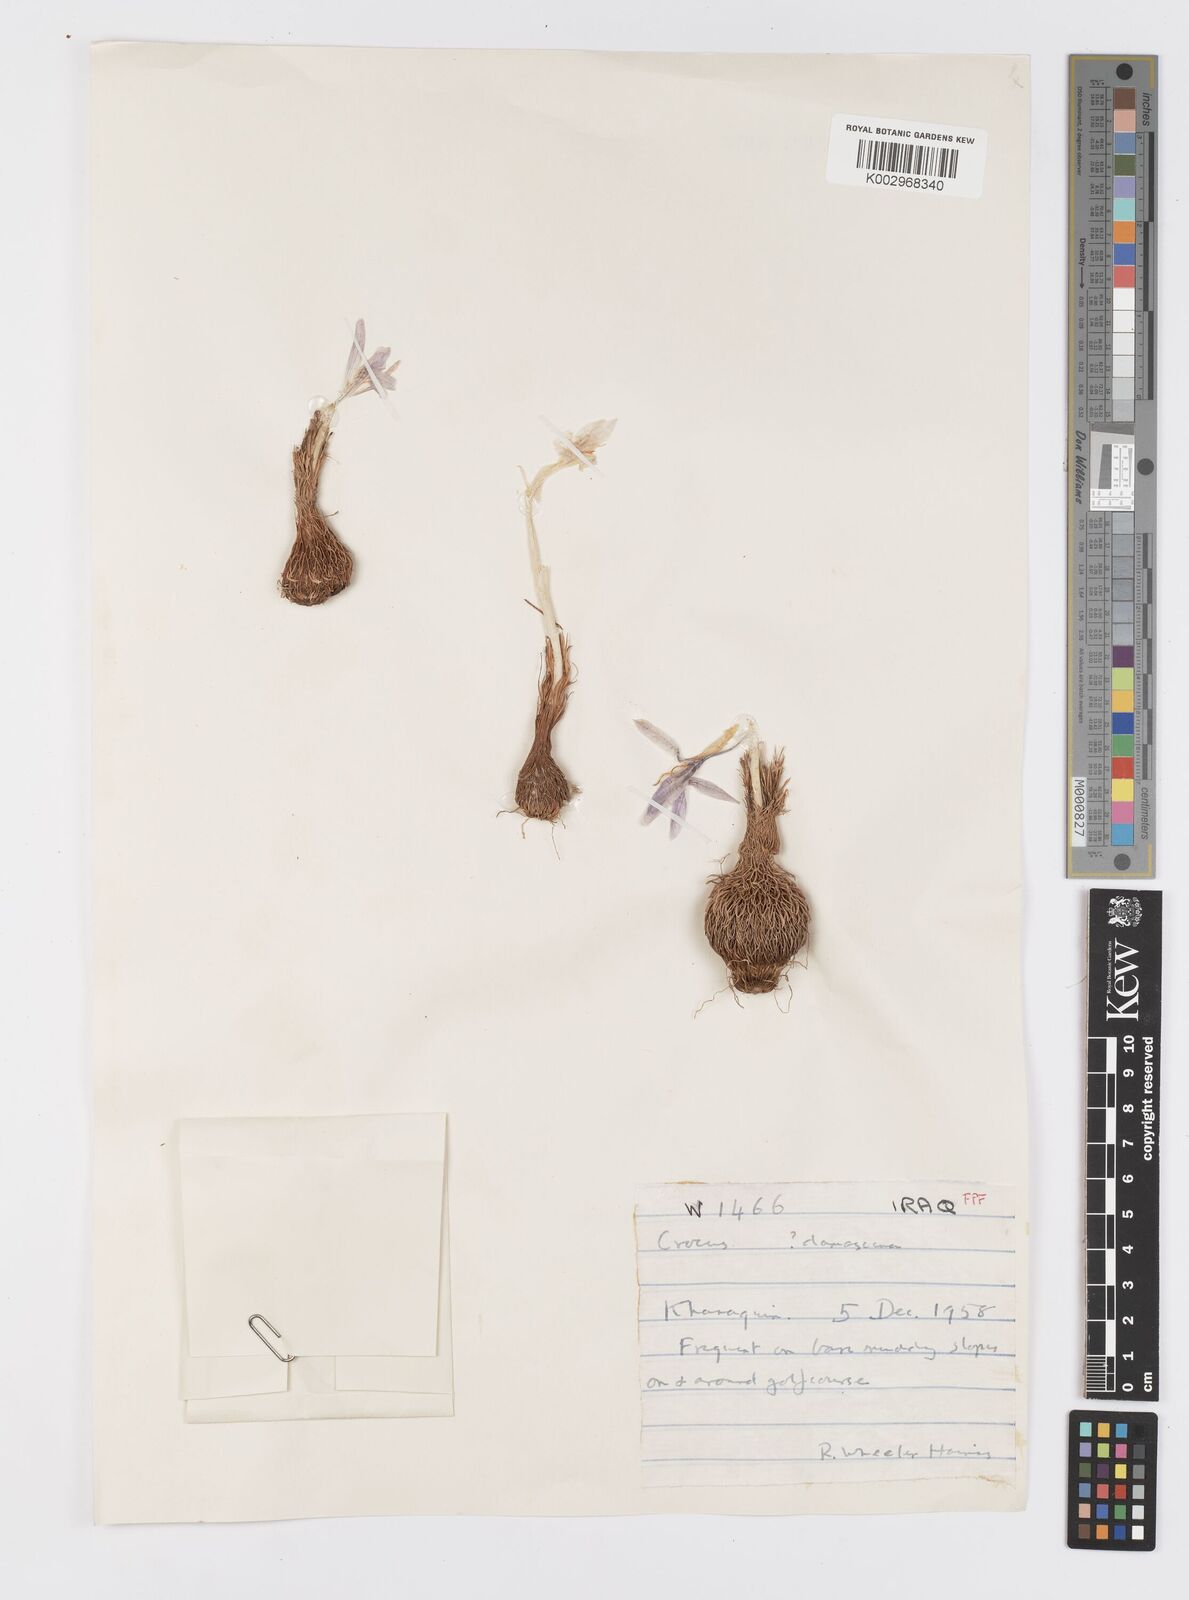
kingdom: Plantae
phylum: Tracheophyta
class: Liliopsida
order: Asparagales
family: Iridaceae
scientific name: Iridaceae
